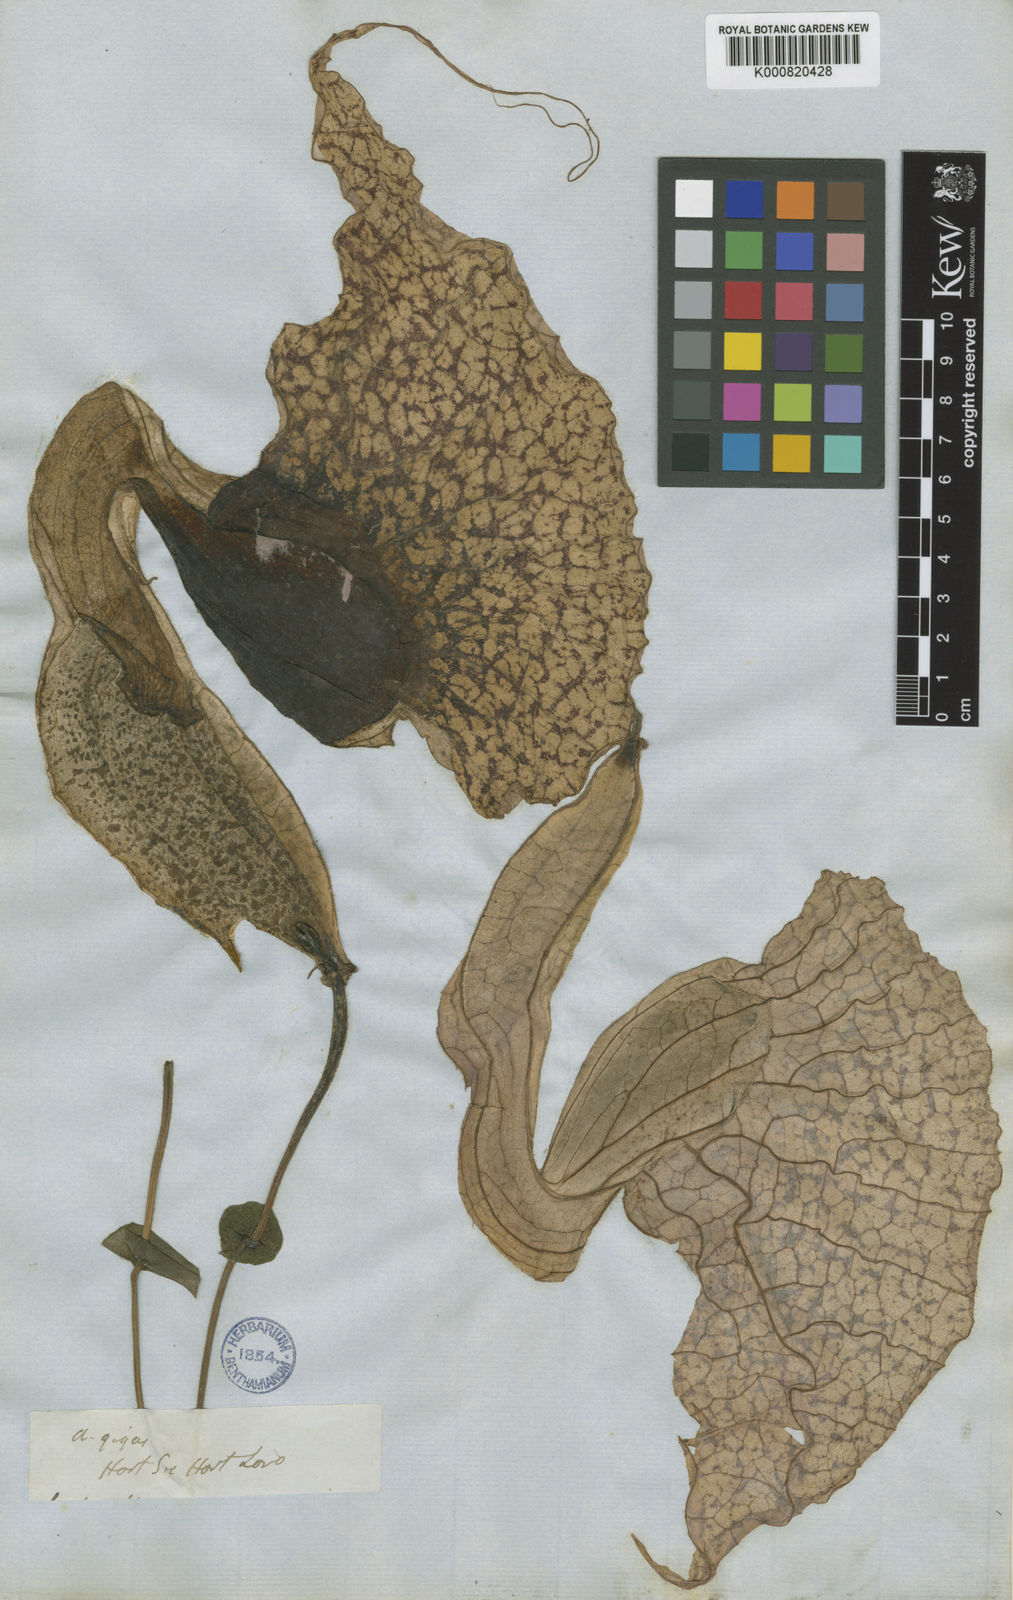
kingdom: Plantae
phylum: Tracheophyta
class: Magnoliopsida
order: Piperales
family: Aristolochiaceae
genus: Aristolochia
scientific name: Aristolochia grandiflora
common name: Pelicanflower
